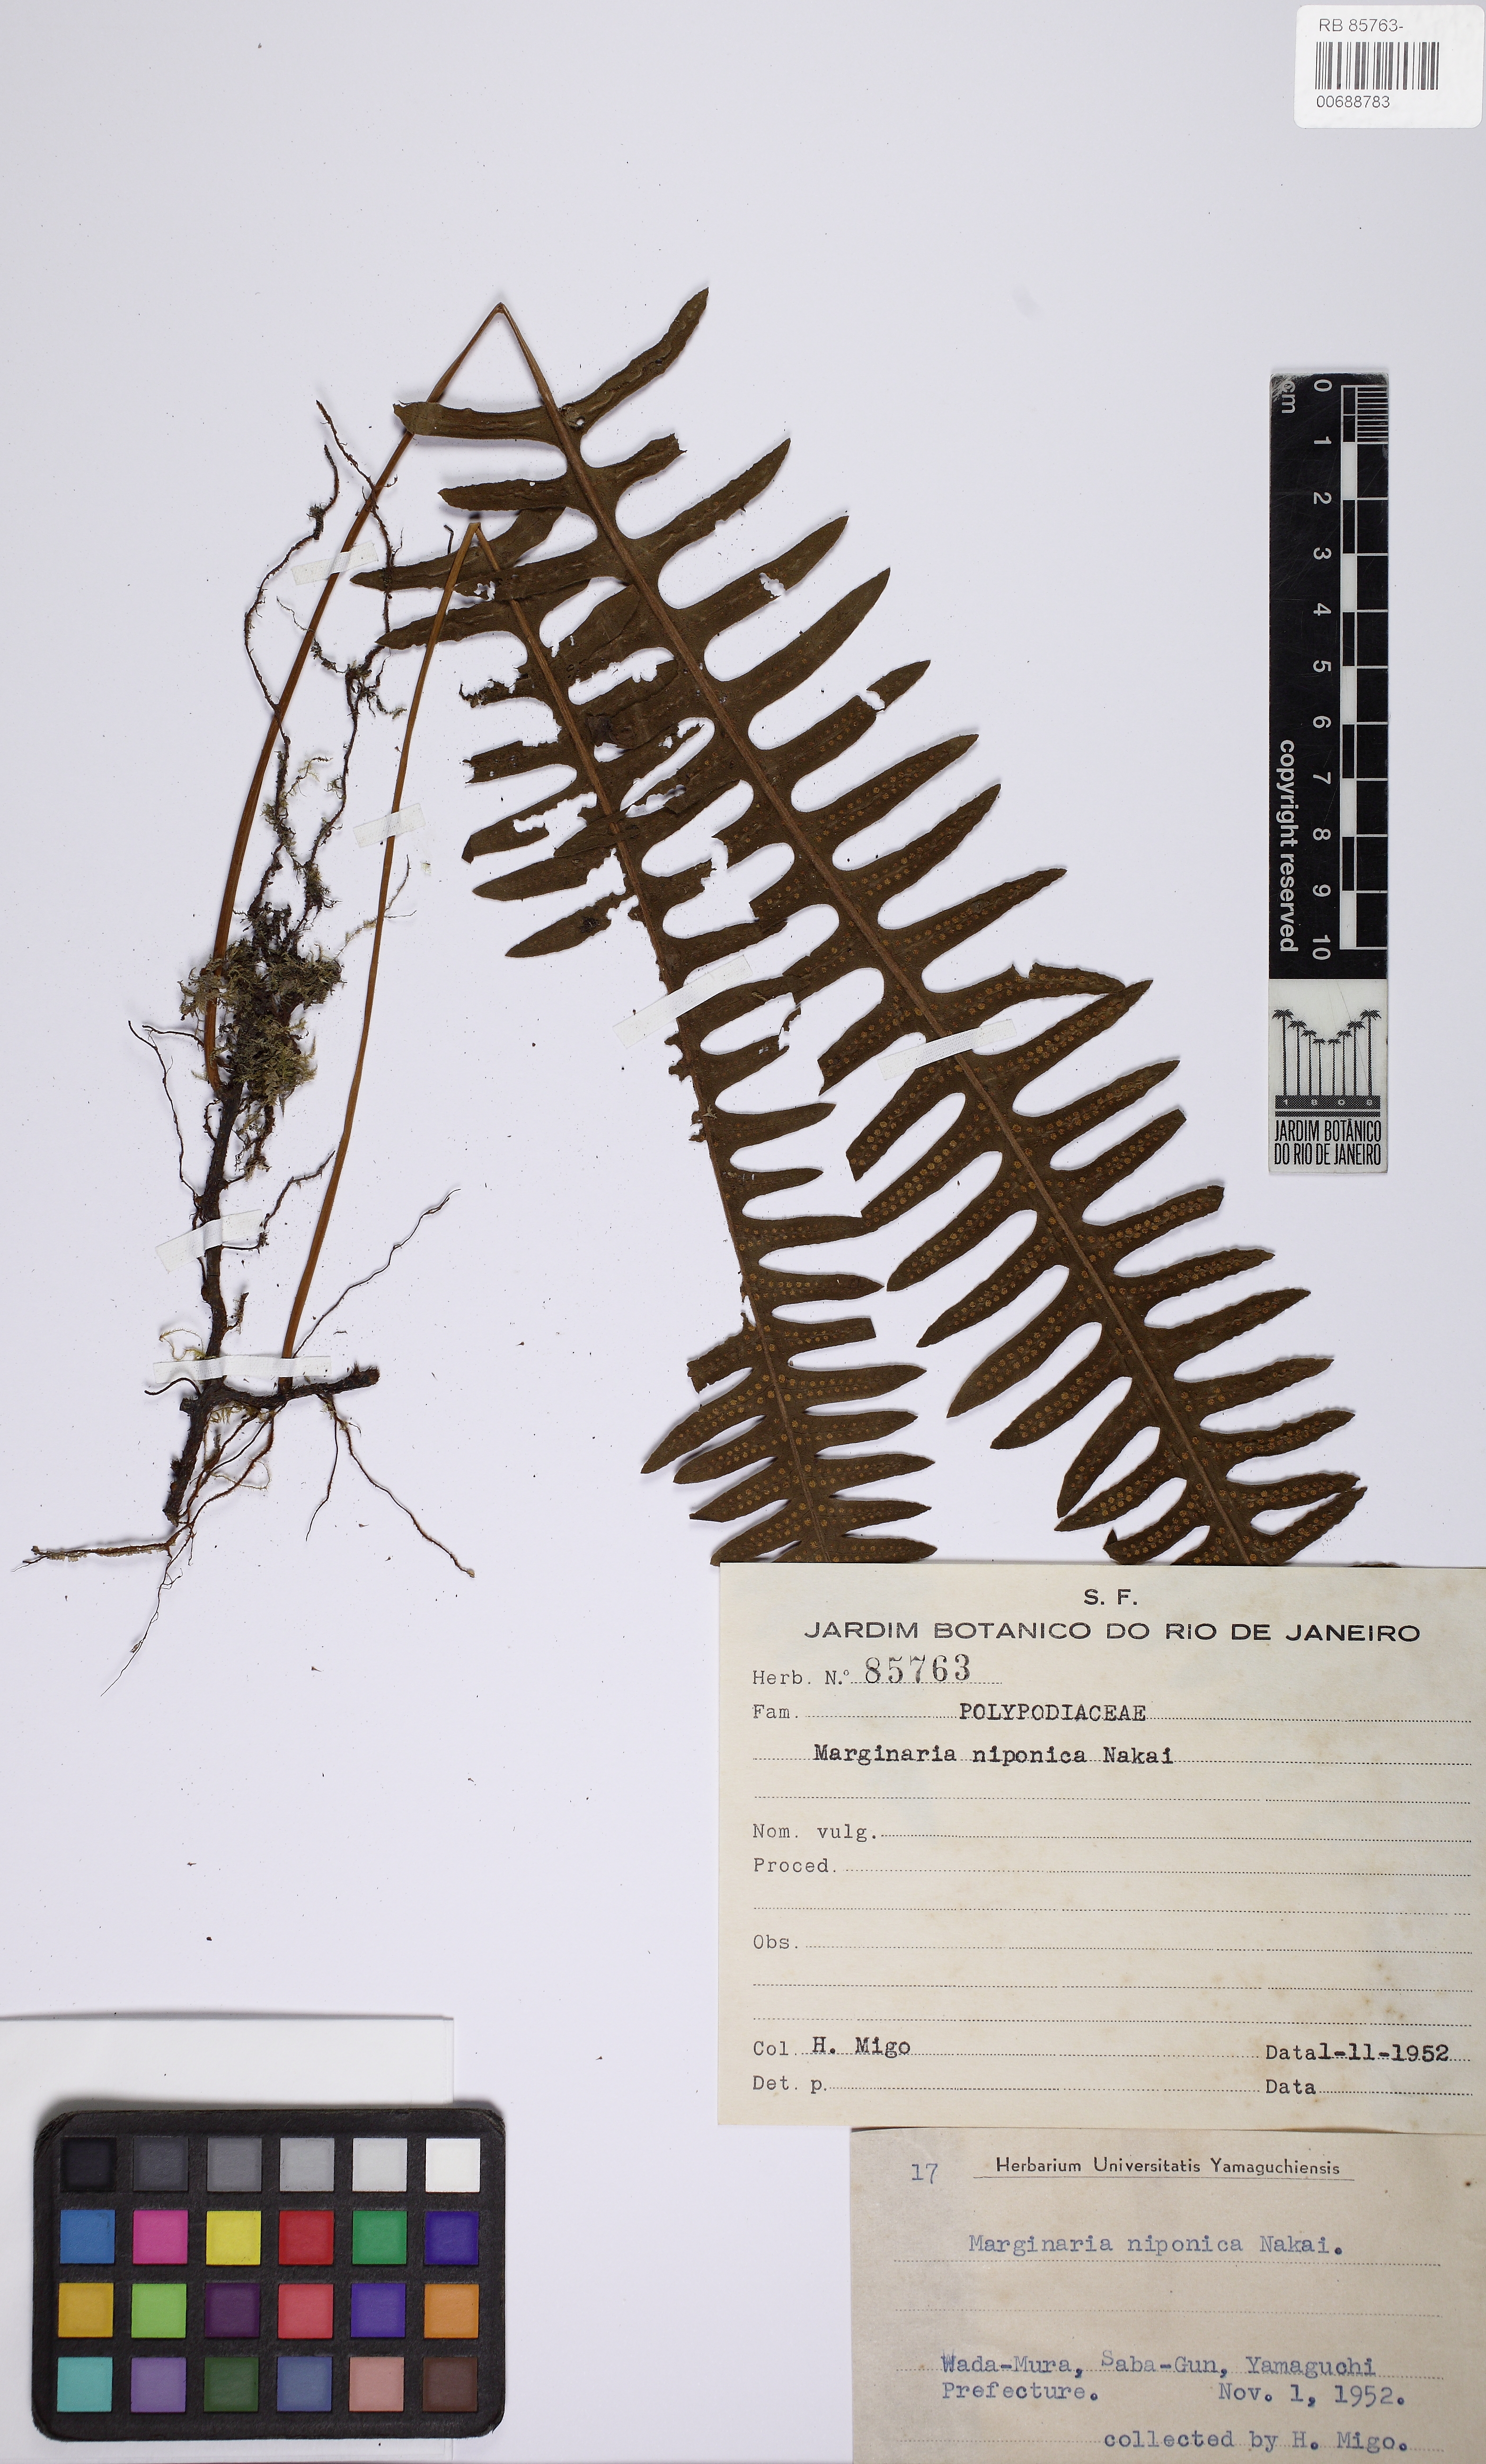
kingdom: Plantae
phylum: Tracheophyta
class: Polypodiopsida
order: Polypodiales
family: Polypodiaceae
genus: Goniophlebium
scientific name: Goniophlebium niponicum
